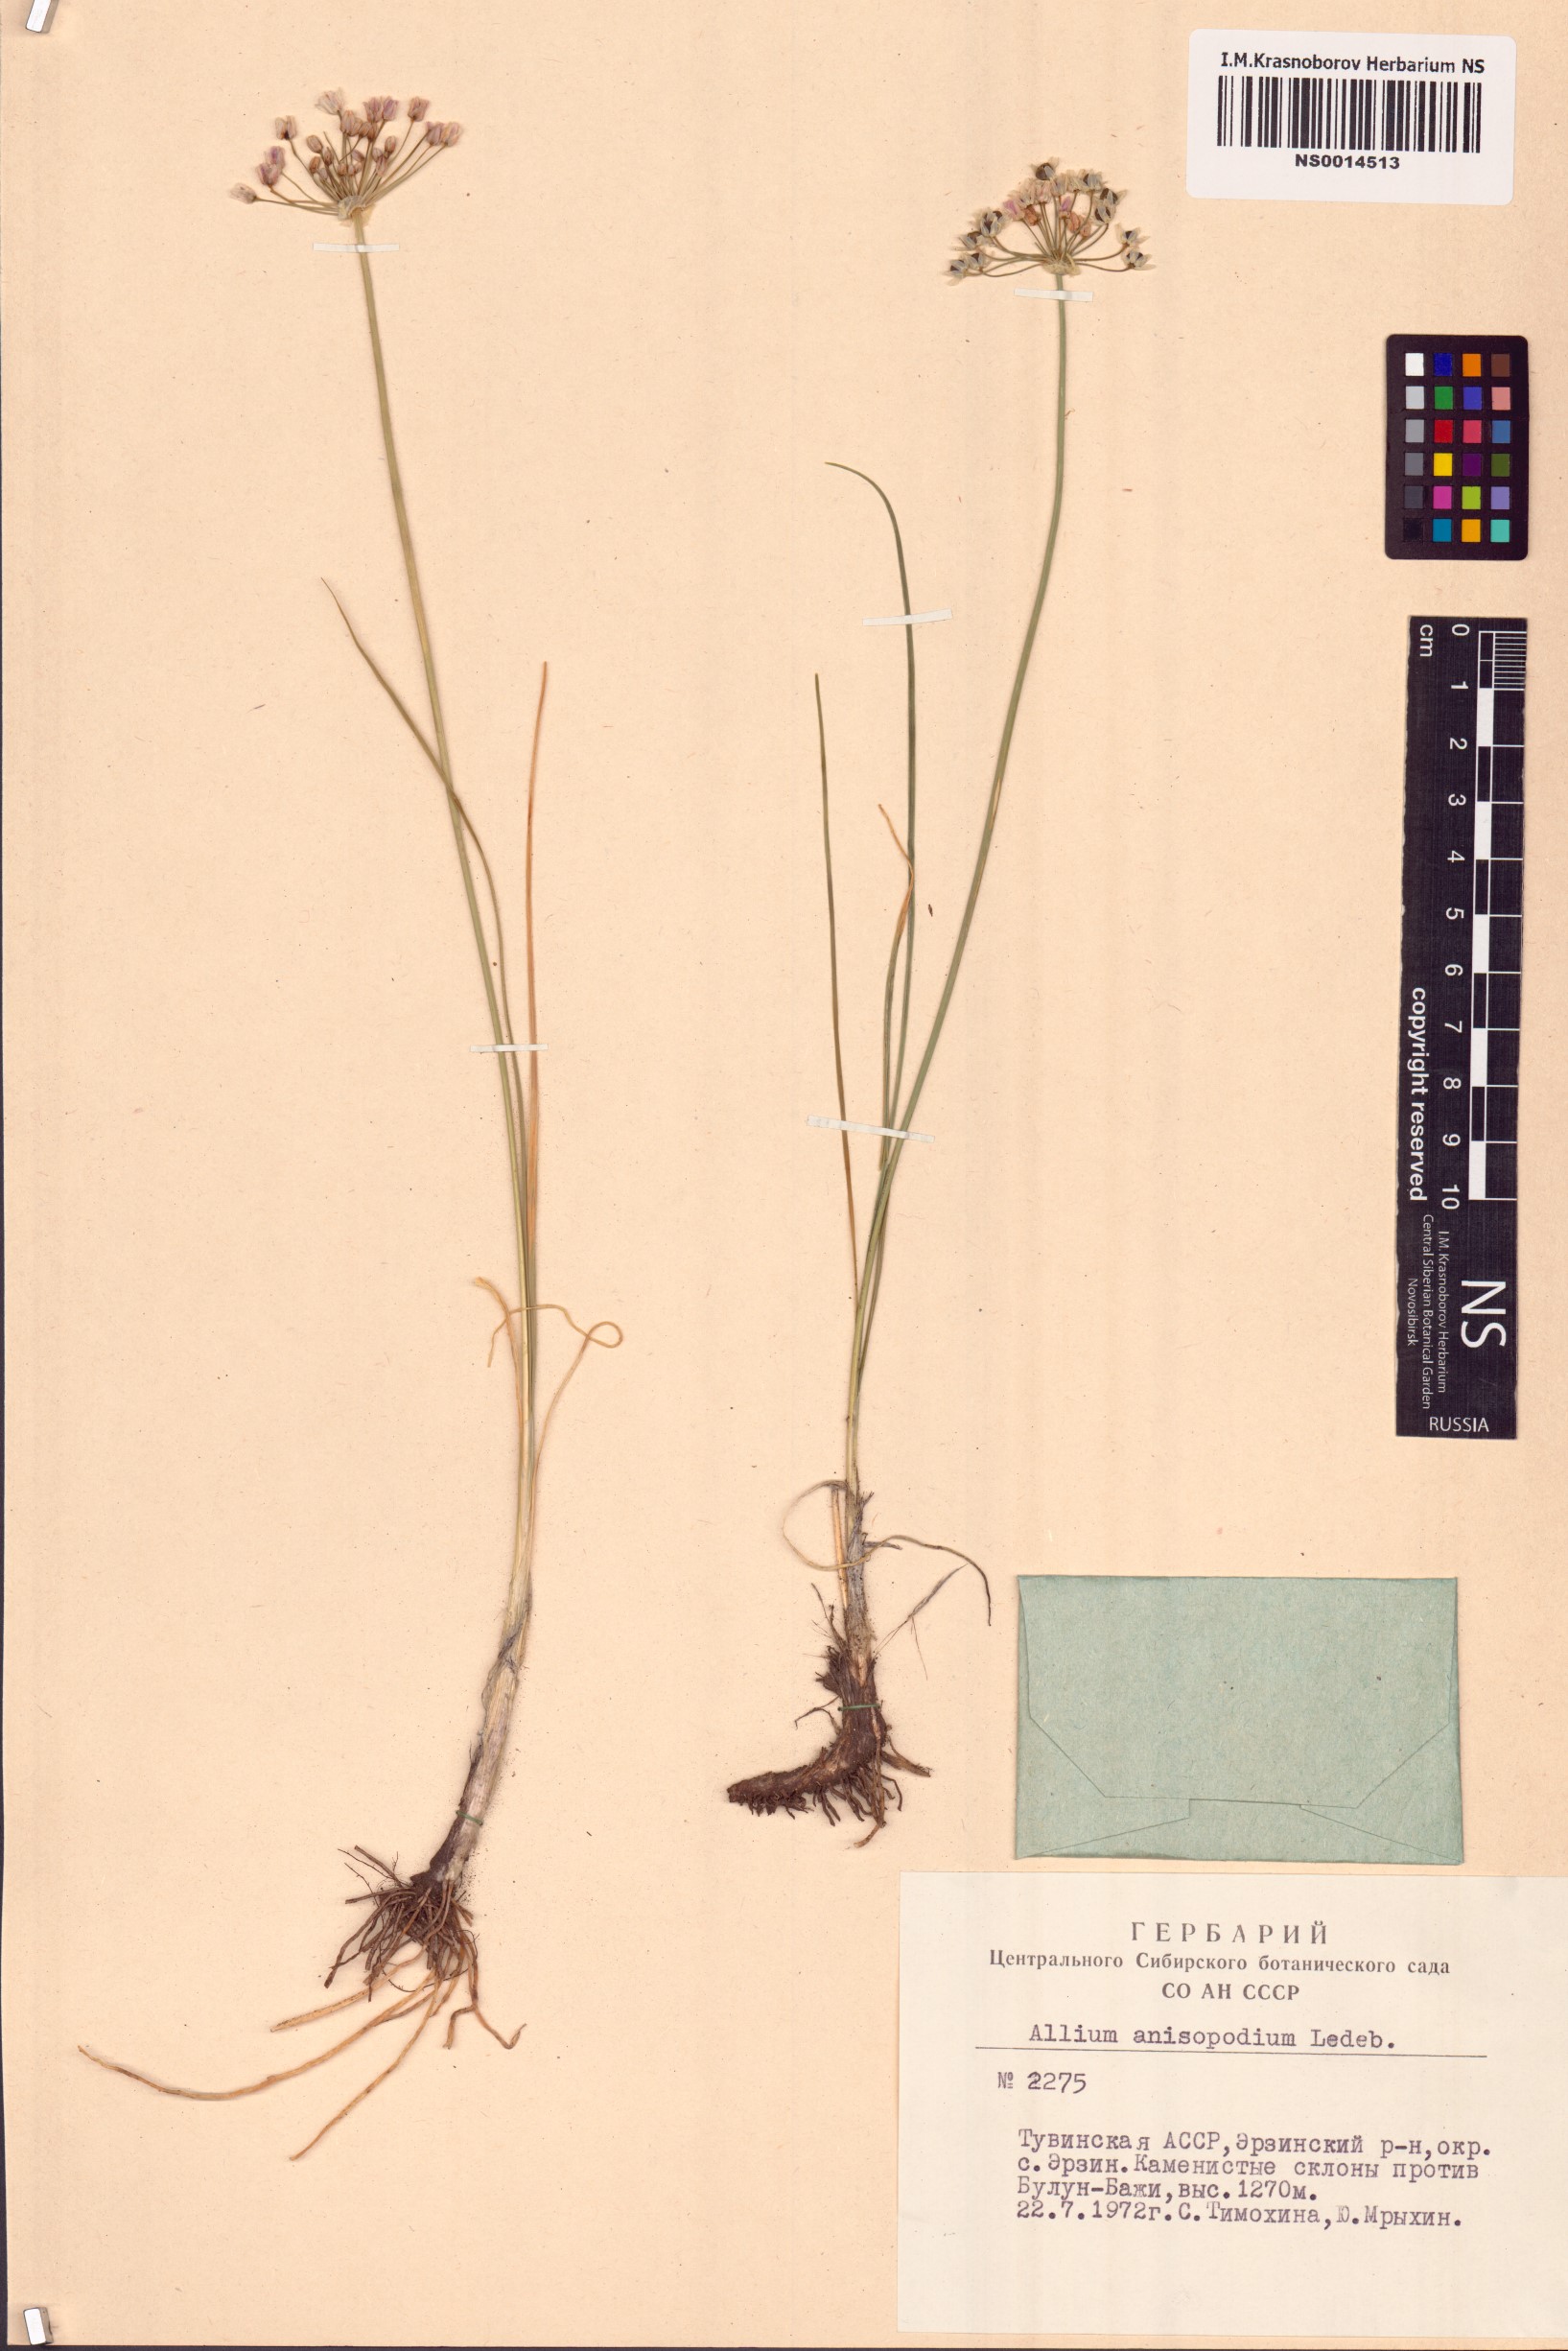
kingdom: Plantae
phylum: Tracheophyta
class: Liliopsida
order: Asparagales
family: Amaryllidaceae
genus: Allium
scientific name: Allium anisopodium
